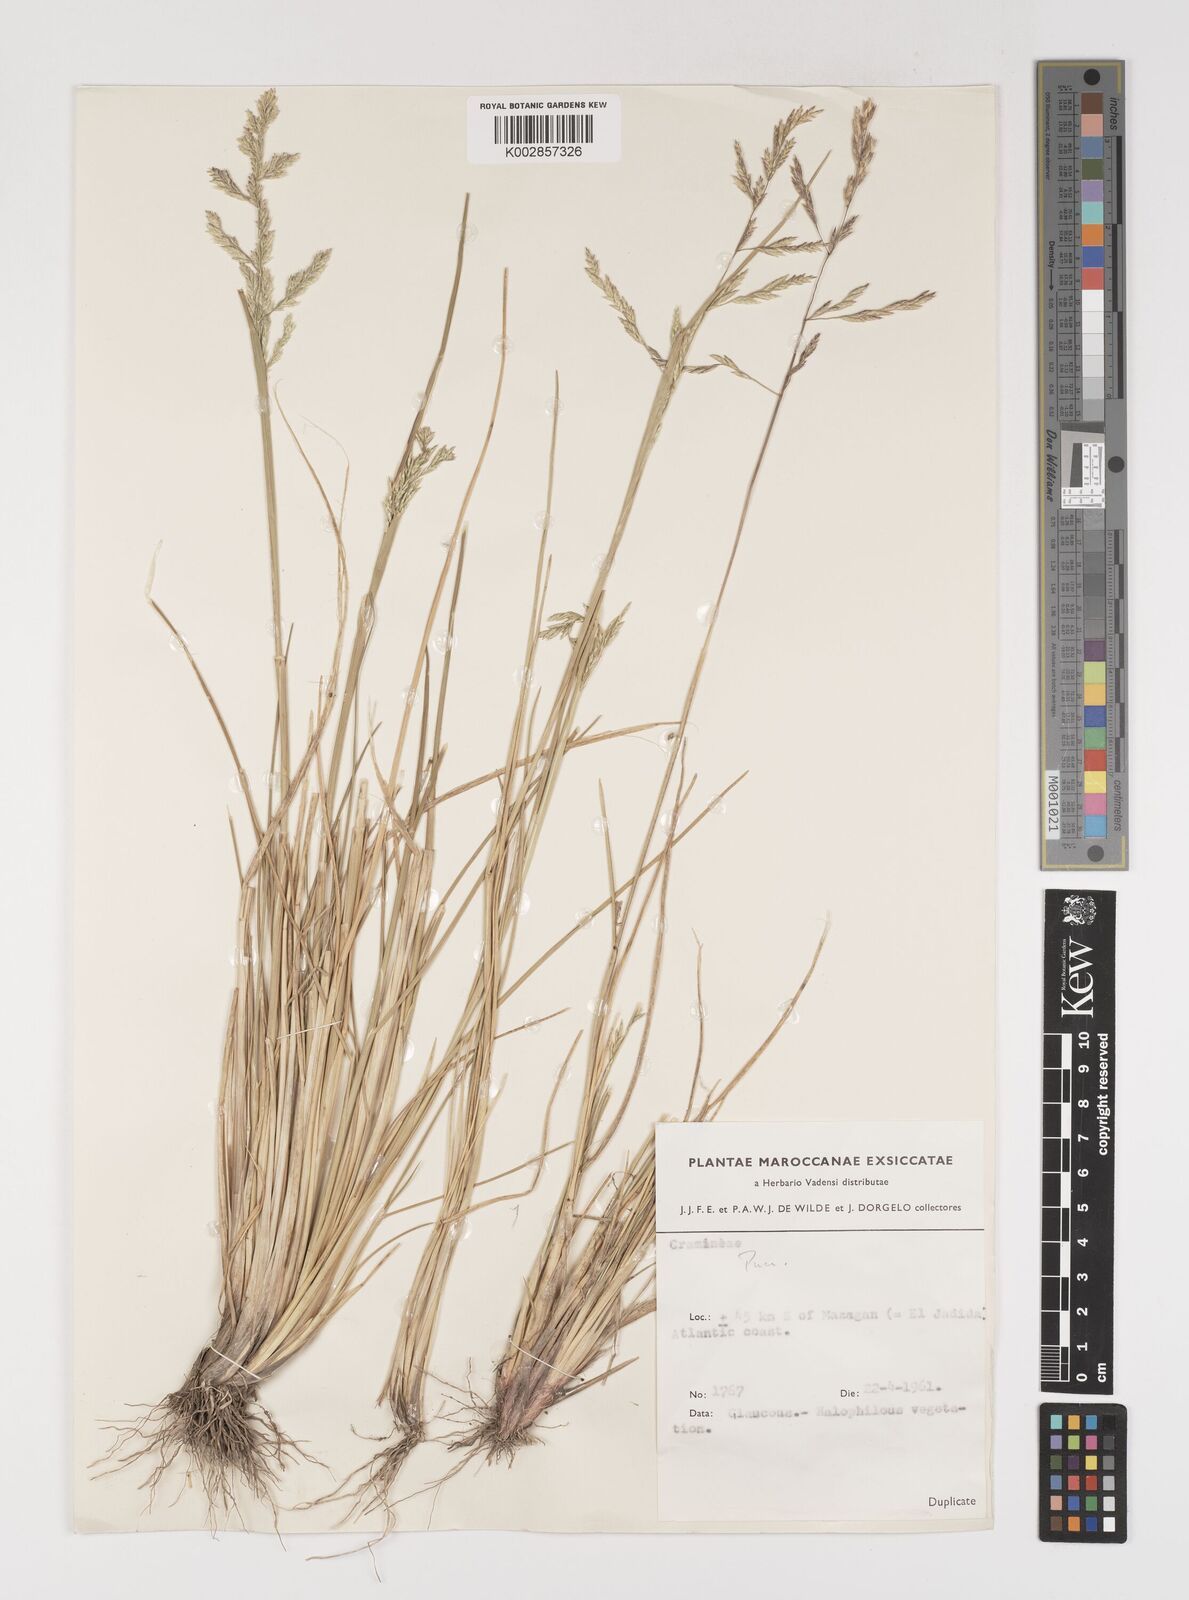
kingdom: Plantae
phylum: Tracheophyta
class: Liliopsida
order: Poales
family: Poaceae
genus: Puccinellia
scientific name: Puccinellia distans
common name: Weeping alkaligrass
